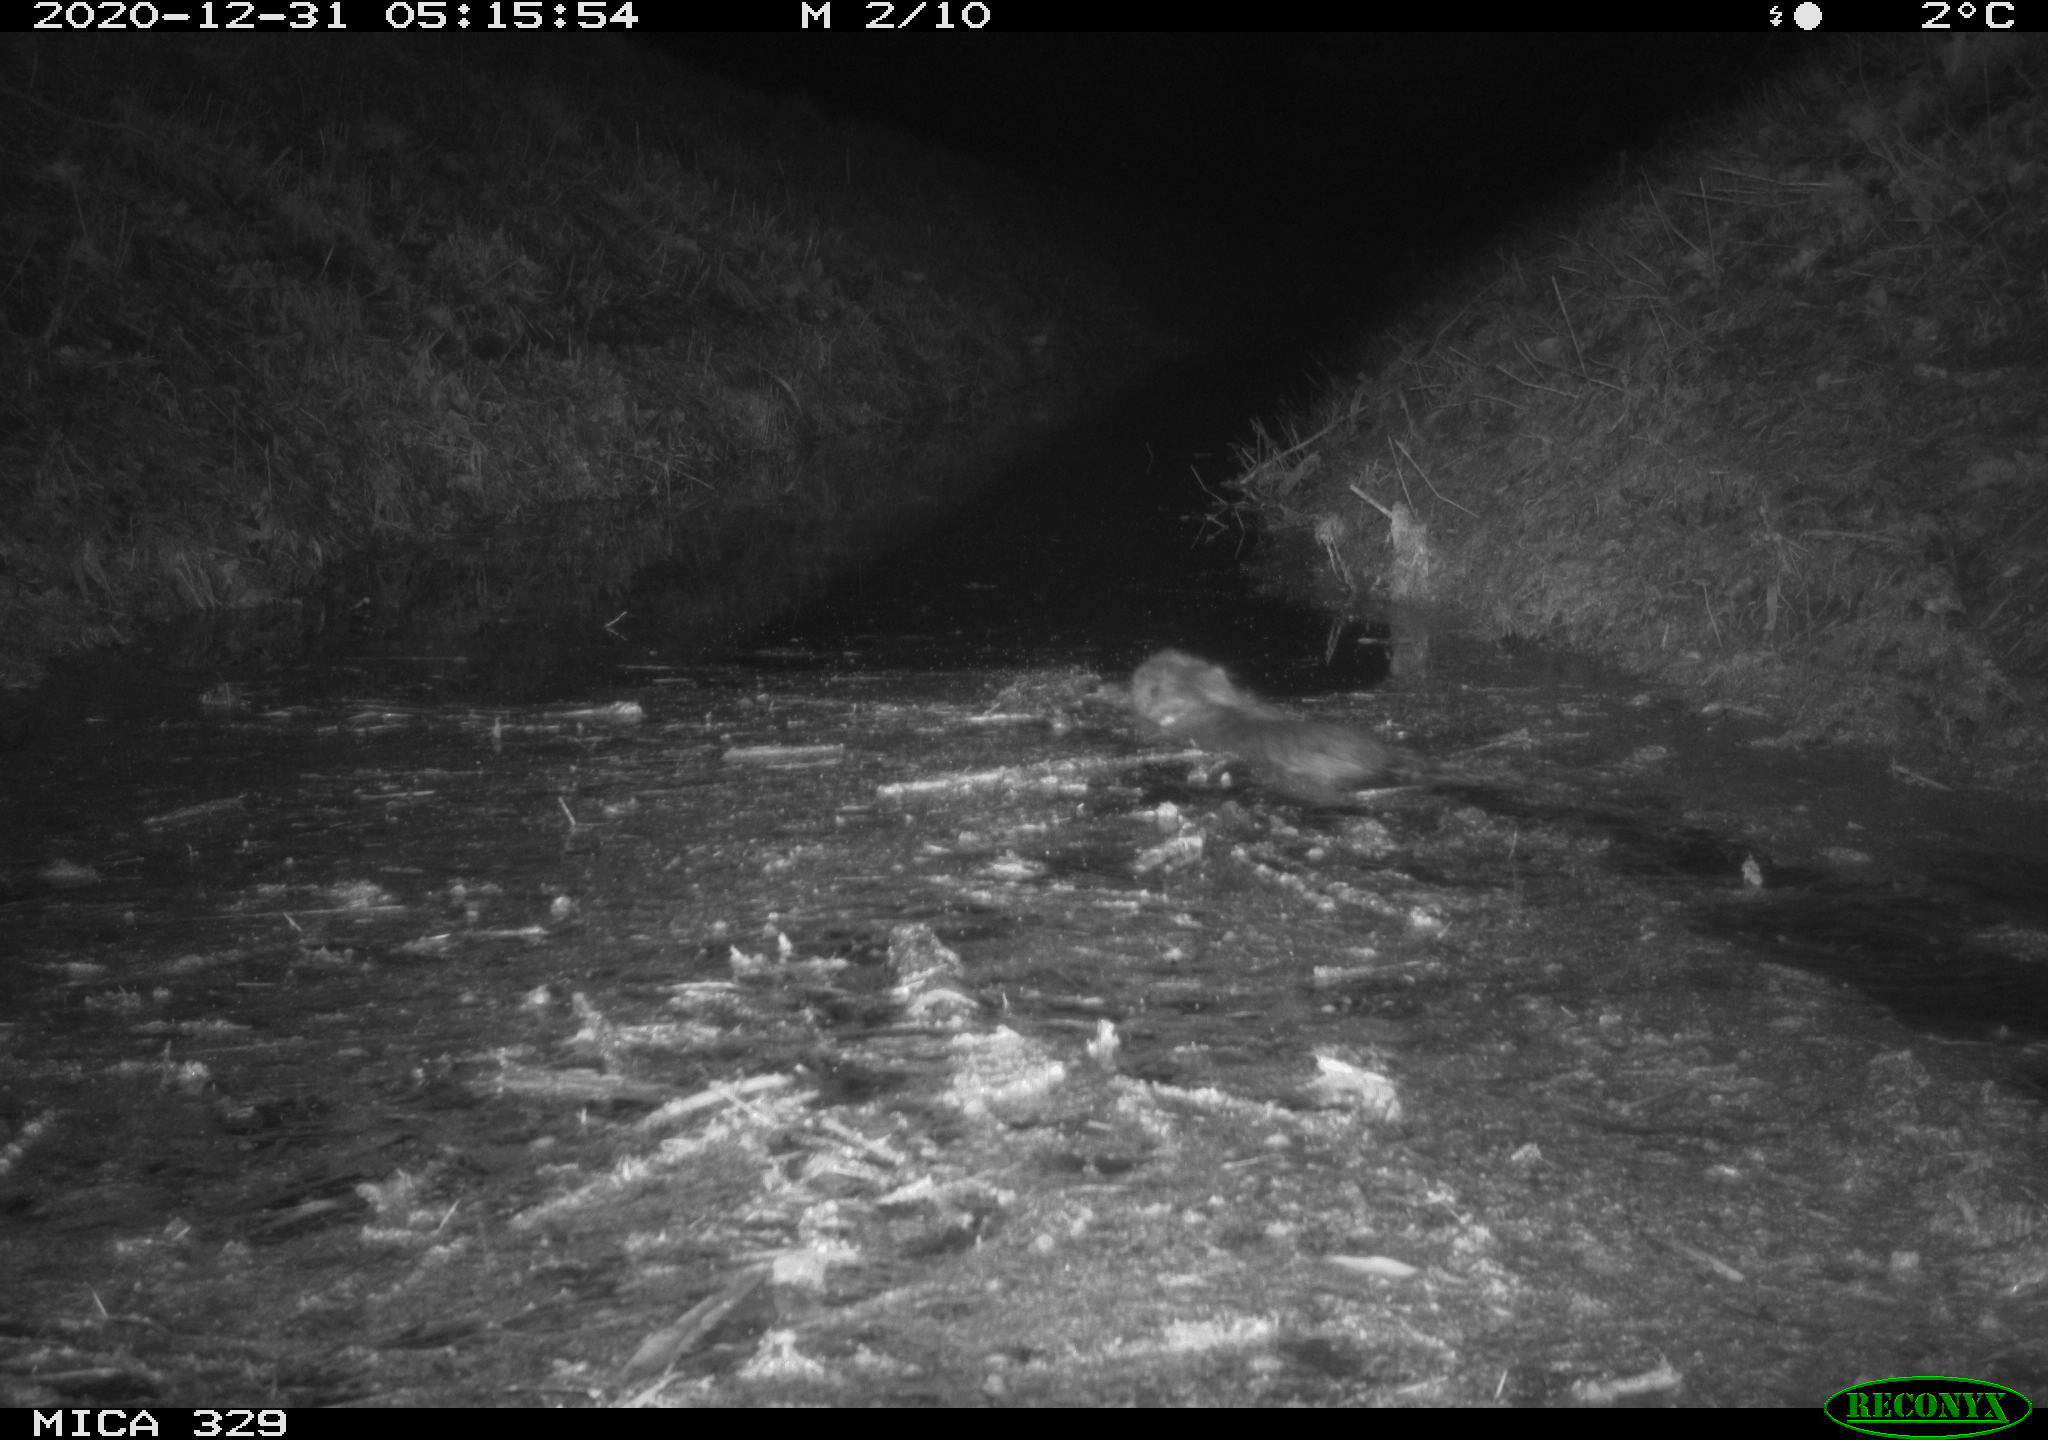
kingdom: Animalia
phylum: Chordata
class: Mammalia
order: Rodentia
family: Myocastoridae
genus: Myocastor
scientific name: Myocastor coypus
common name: Coypu
